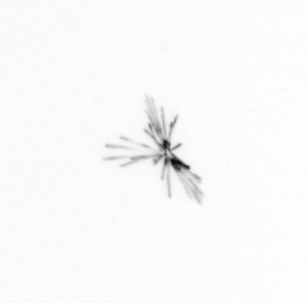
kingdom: Chromista
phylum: Ochrophyta
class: Bacillariophyceae
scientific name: Bacillariophyceae
